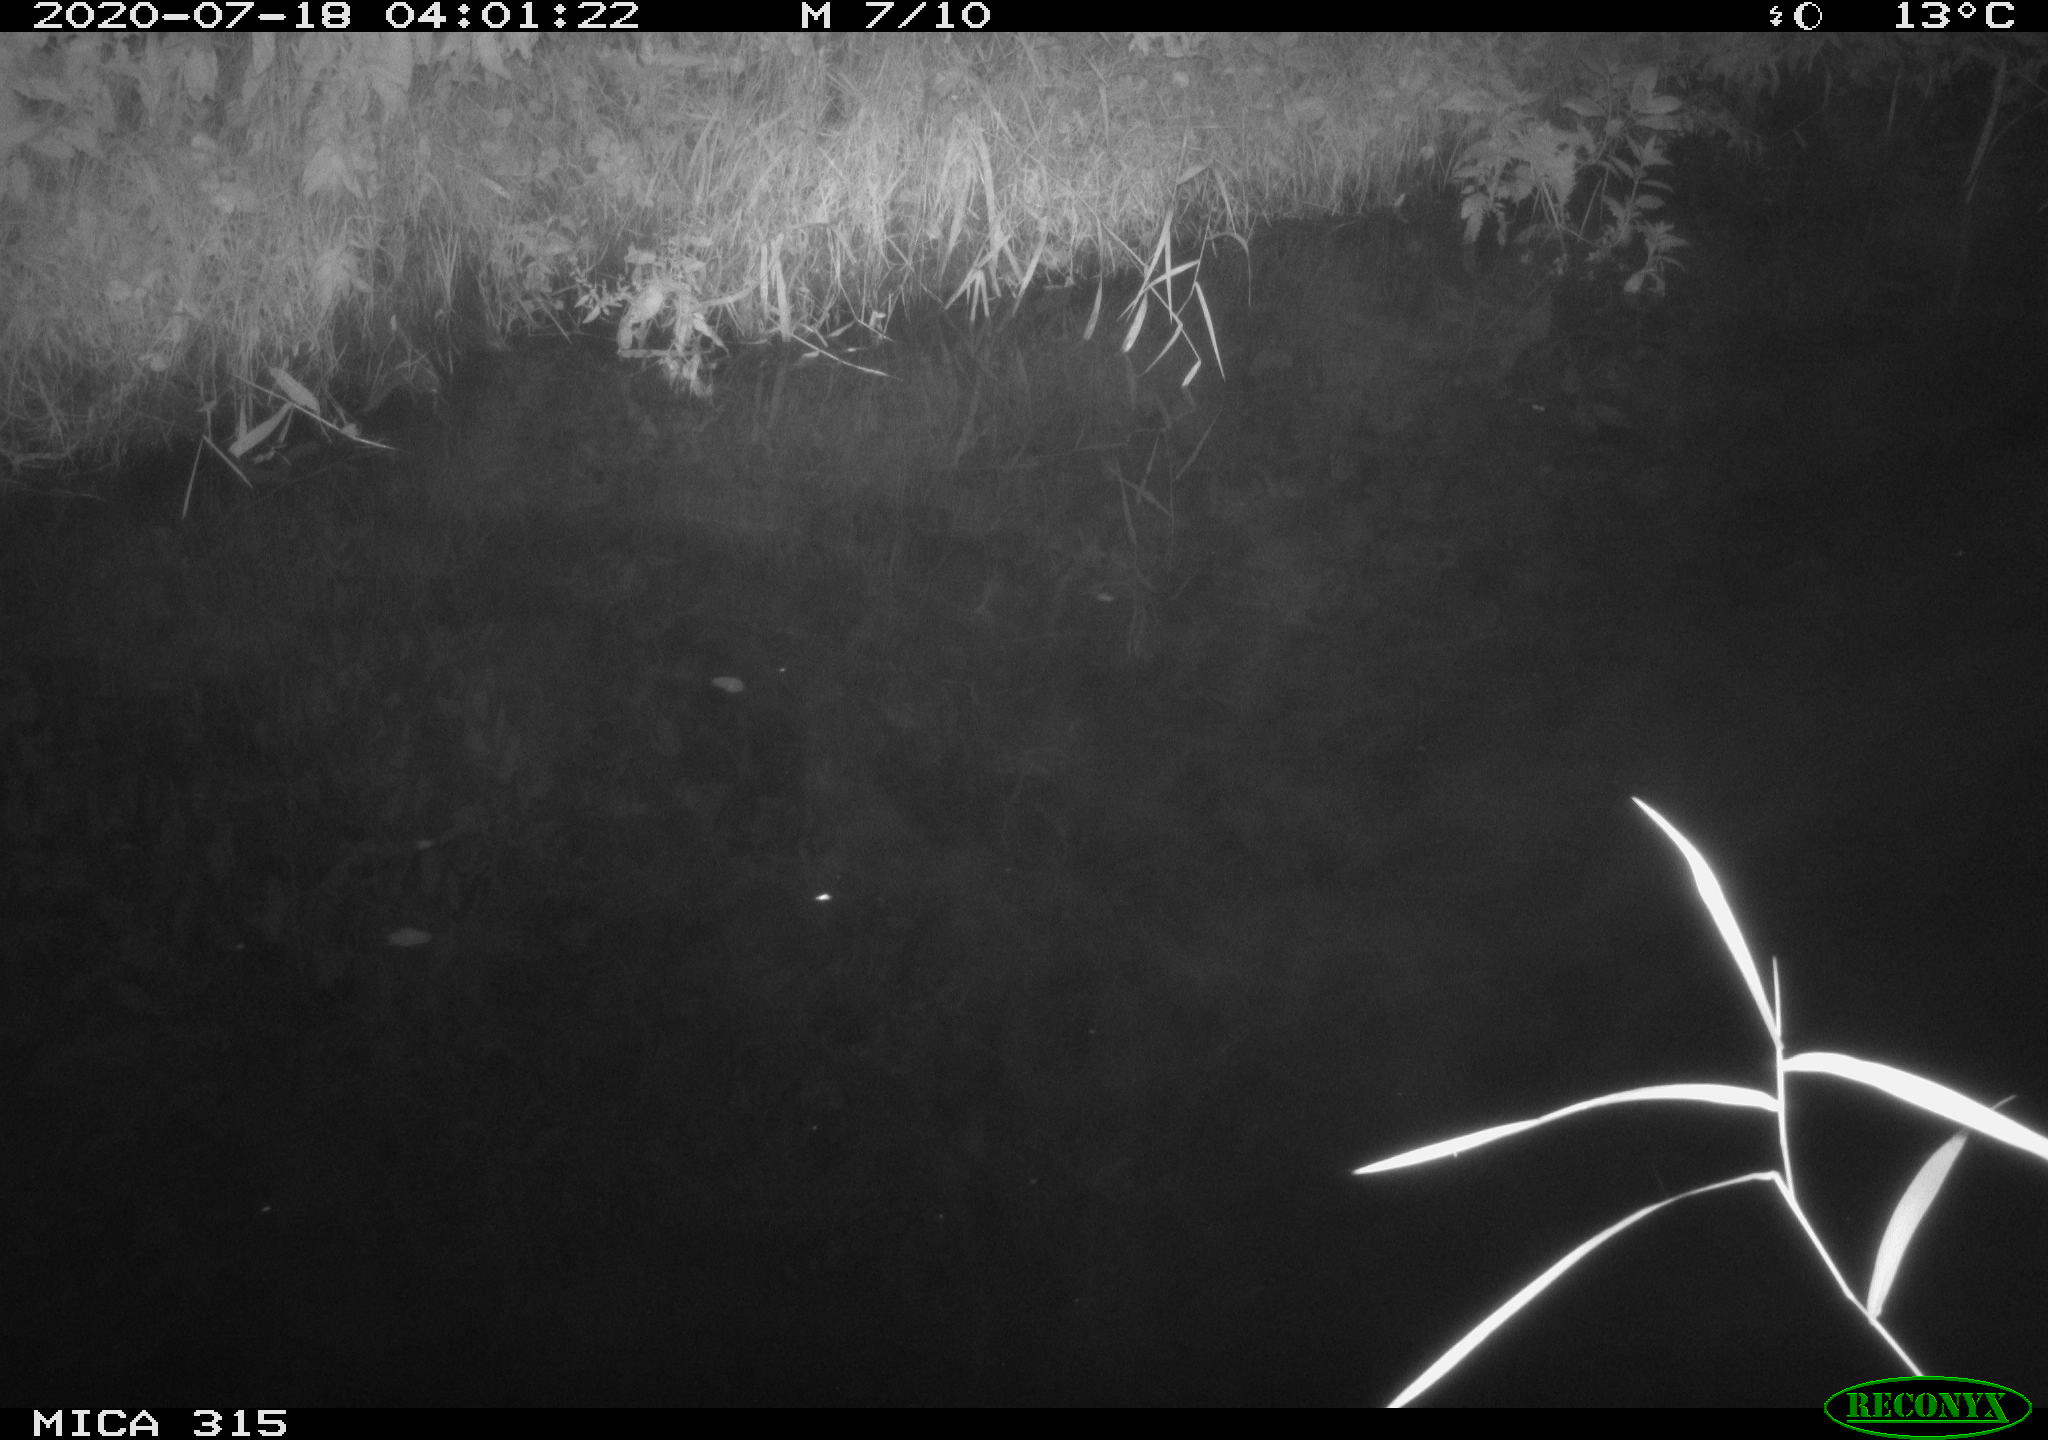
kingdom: Animalia
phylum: Chordata
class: Aves
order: Anseriformes
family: Anatidae
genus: Anas
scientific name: Anas platyrhynchos
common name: Mallard
